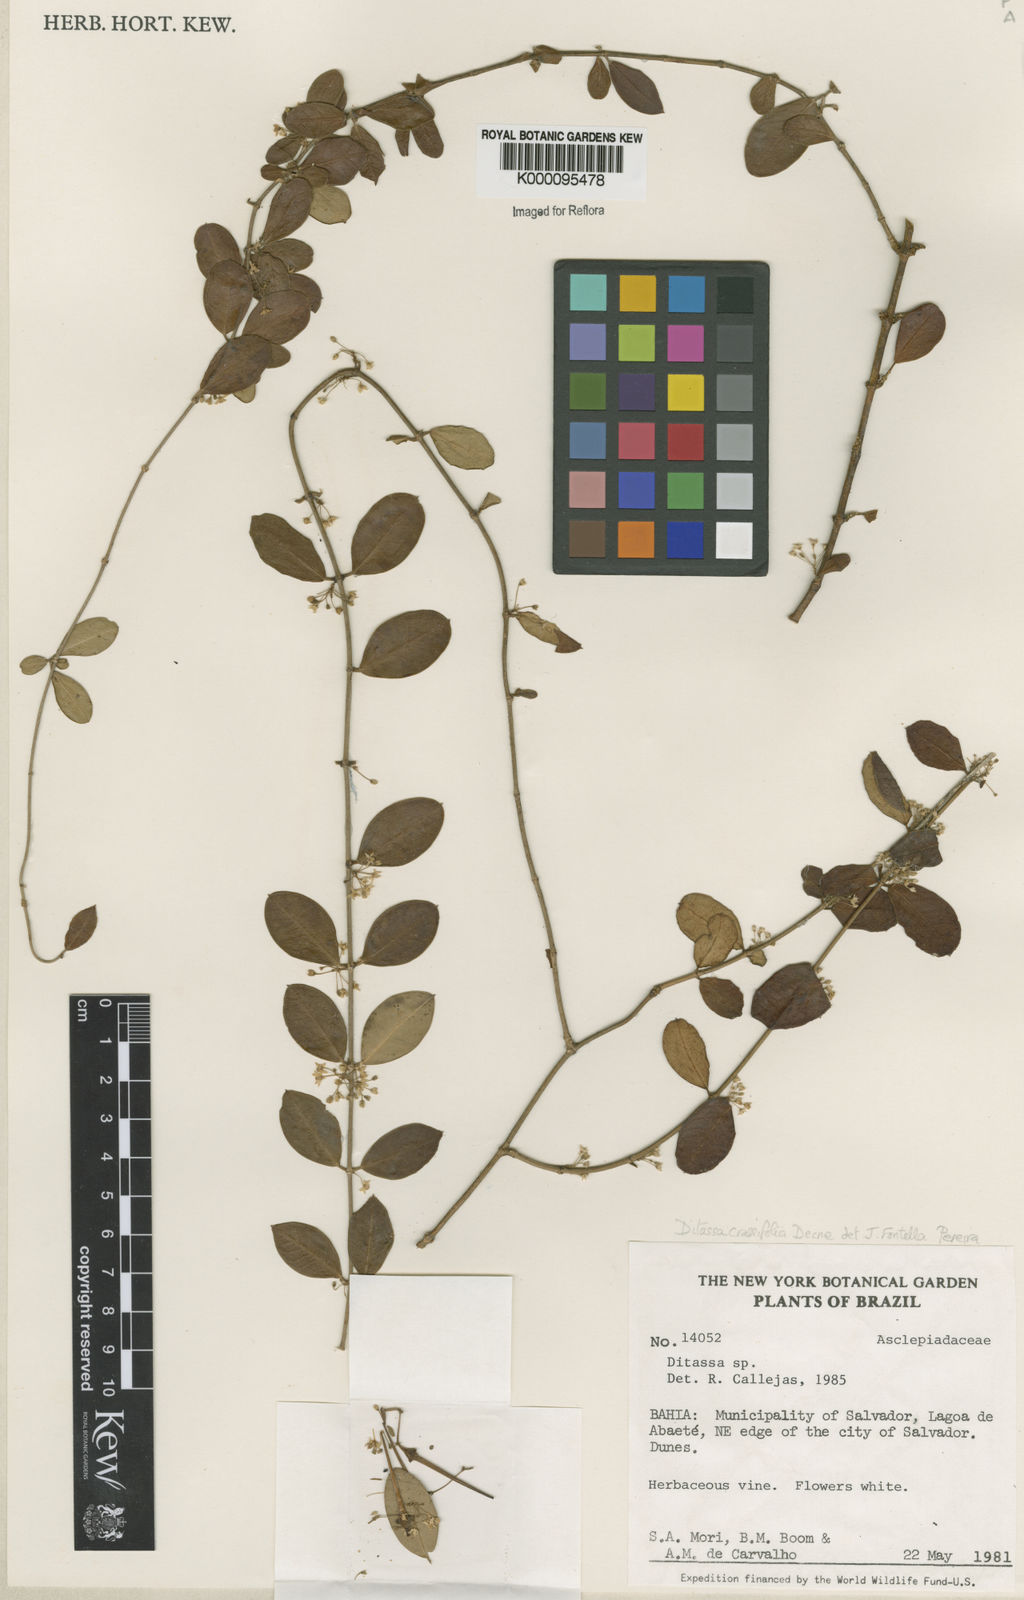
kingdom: Plantae
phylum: Tracheophyta
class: Magnoliopsida
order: Gentianales
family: Apocynaceae
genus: Ditassa
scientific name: Ditassa crassifolia
